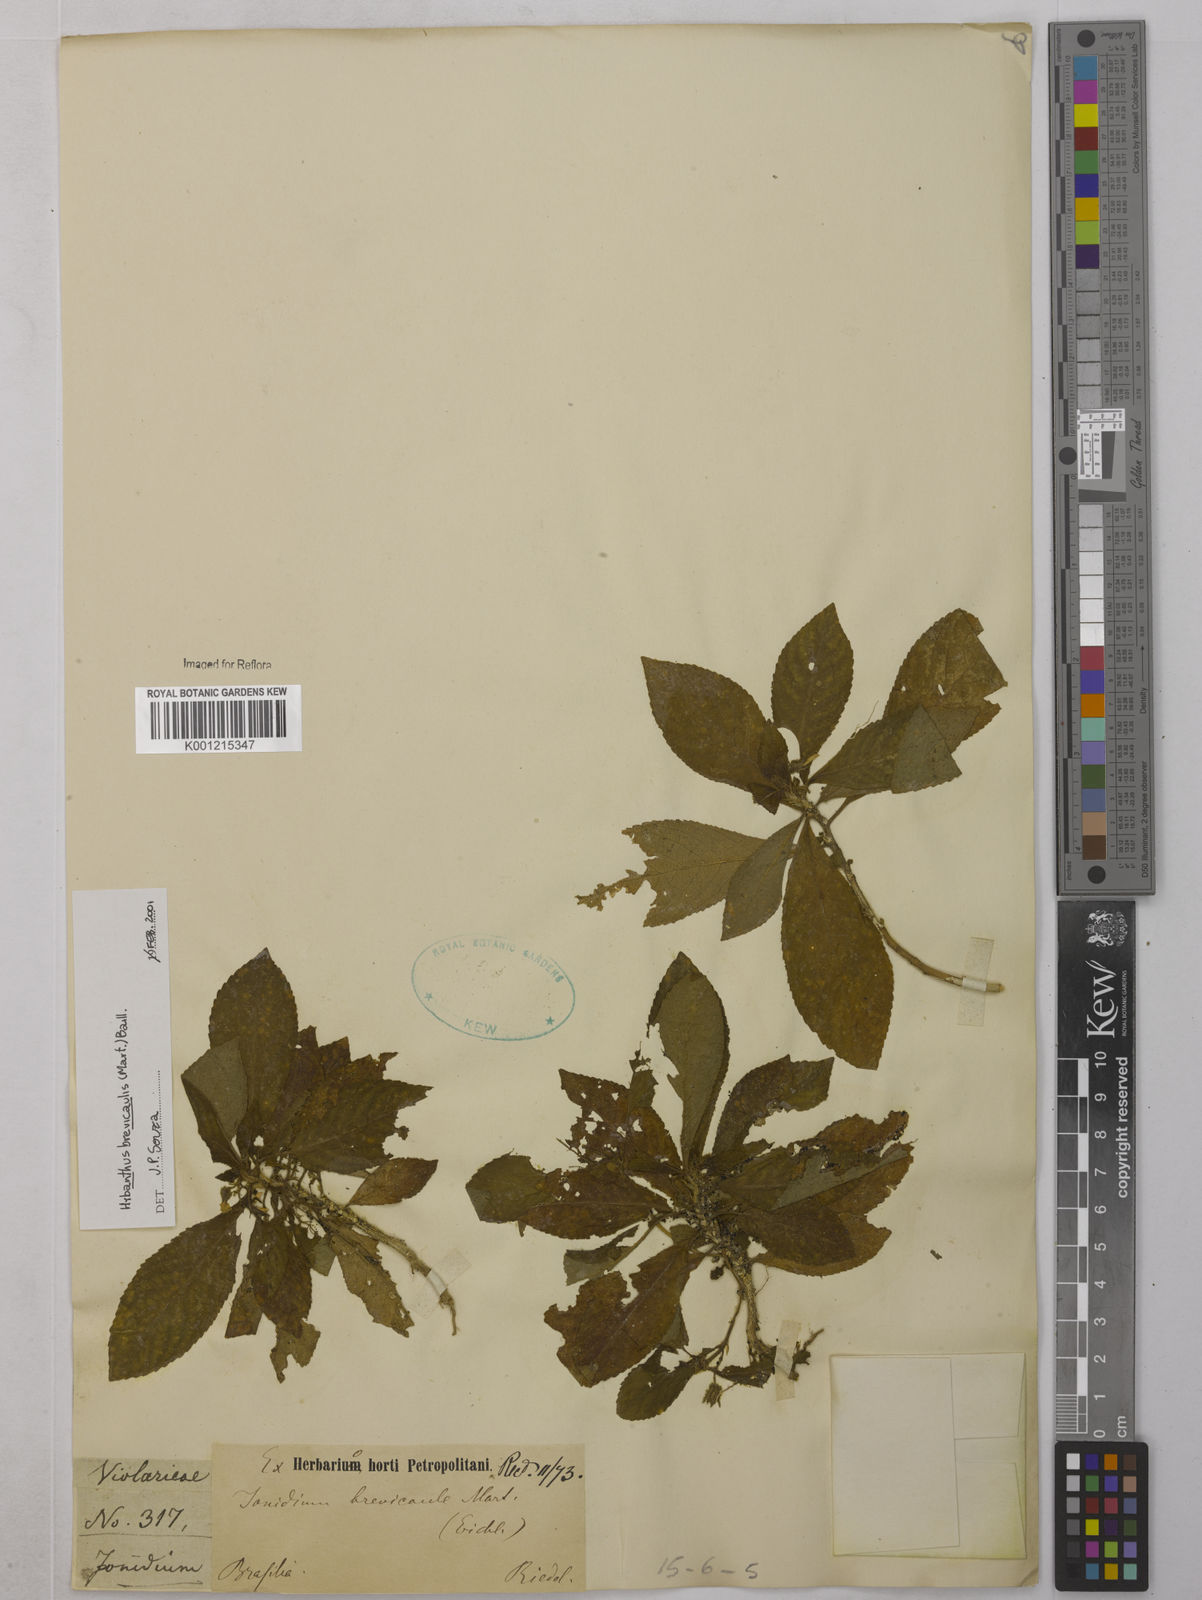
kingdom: Plantae
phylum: Tracheophyta
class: Magnoliopsida
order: Malpighiales
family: Violaceae
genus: Pombalia
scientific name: Pombalia brevicaulis
